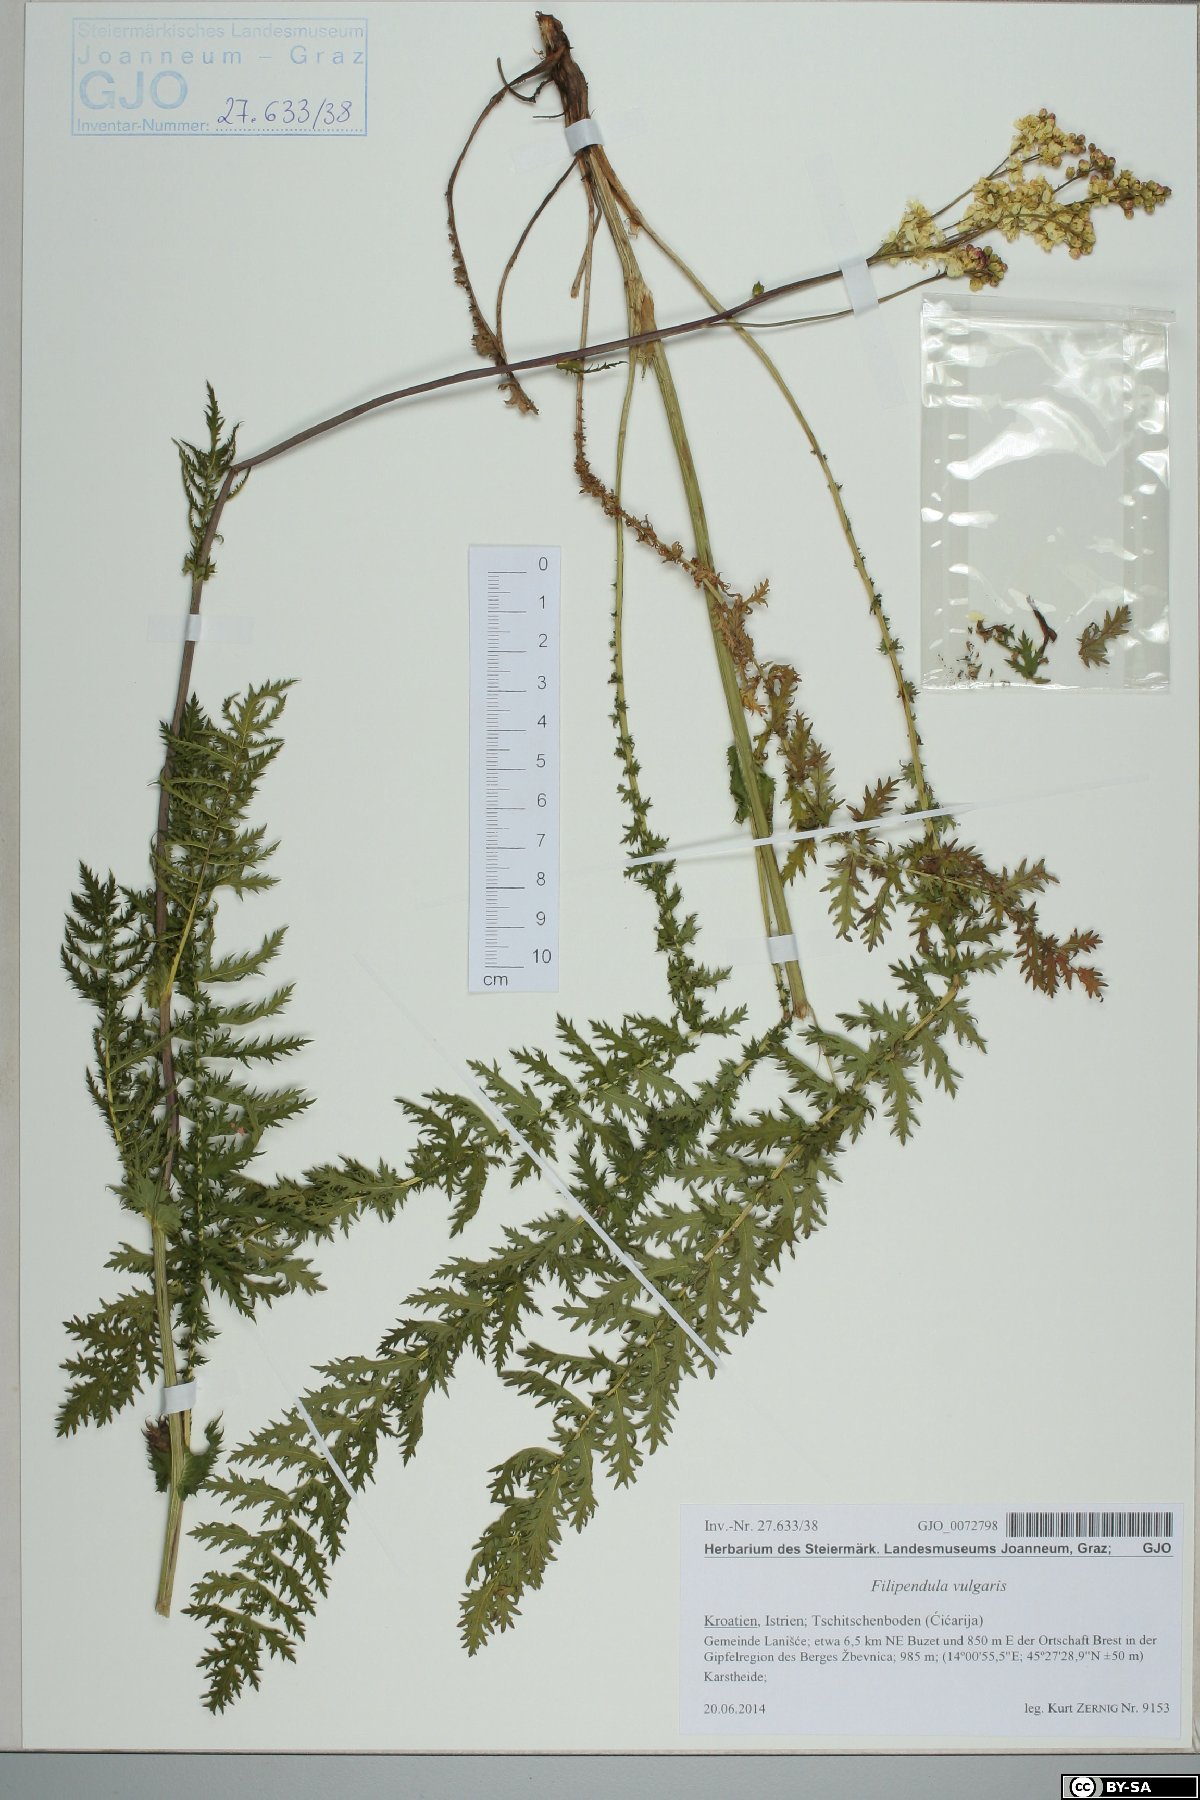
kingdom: Plantae
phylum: Tracheophyta
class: Magnoliopsida
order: Rosales
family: Rosaceae
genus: Filipendula
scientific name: Filipendula vulgaris
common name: Dropwort
